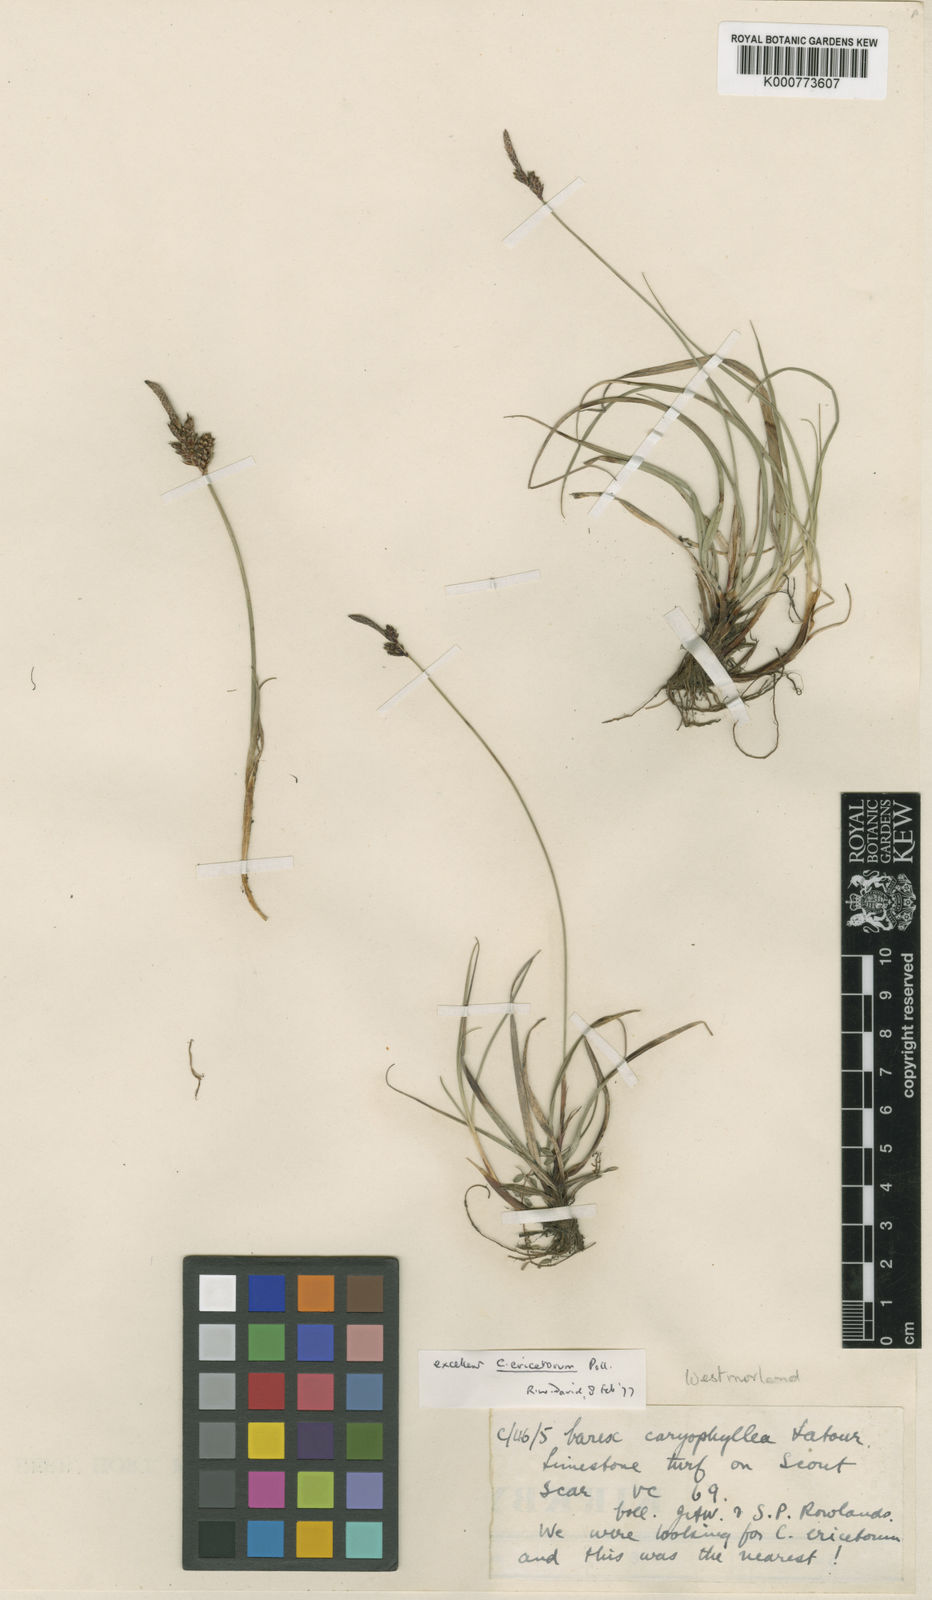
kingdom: Plantae
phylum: Tracheophyta
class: Liliopsida
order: Poales
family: Cyperaceae
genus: Carex
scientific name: Carex ericetorum
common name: Rare spring-sedge
